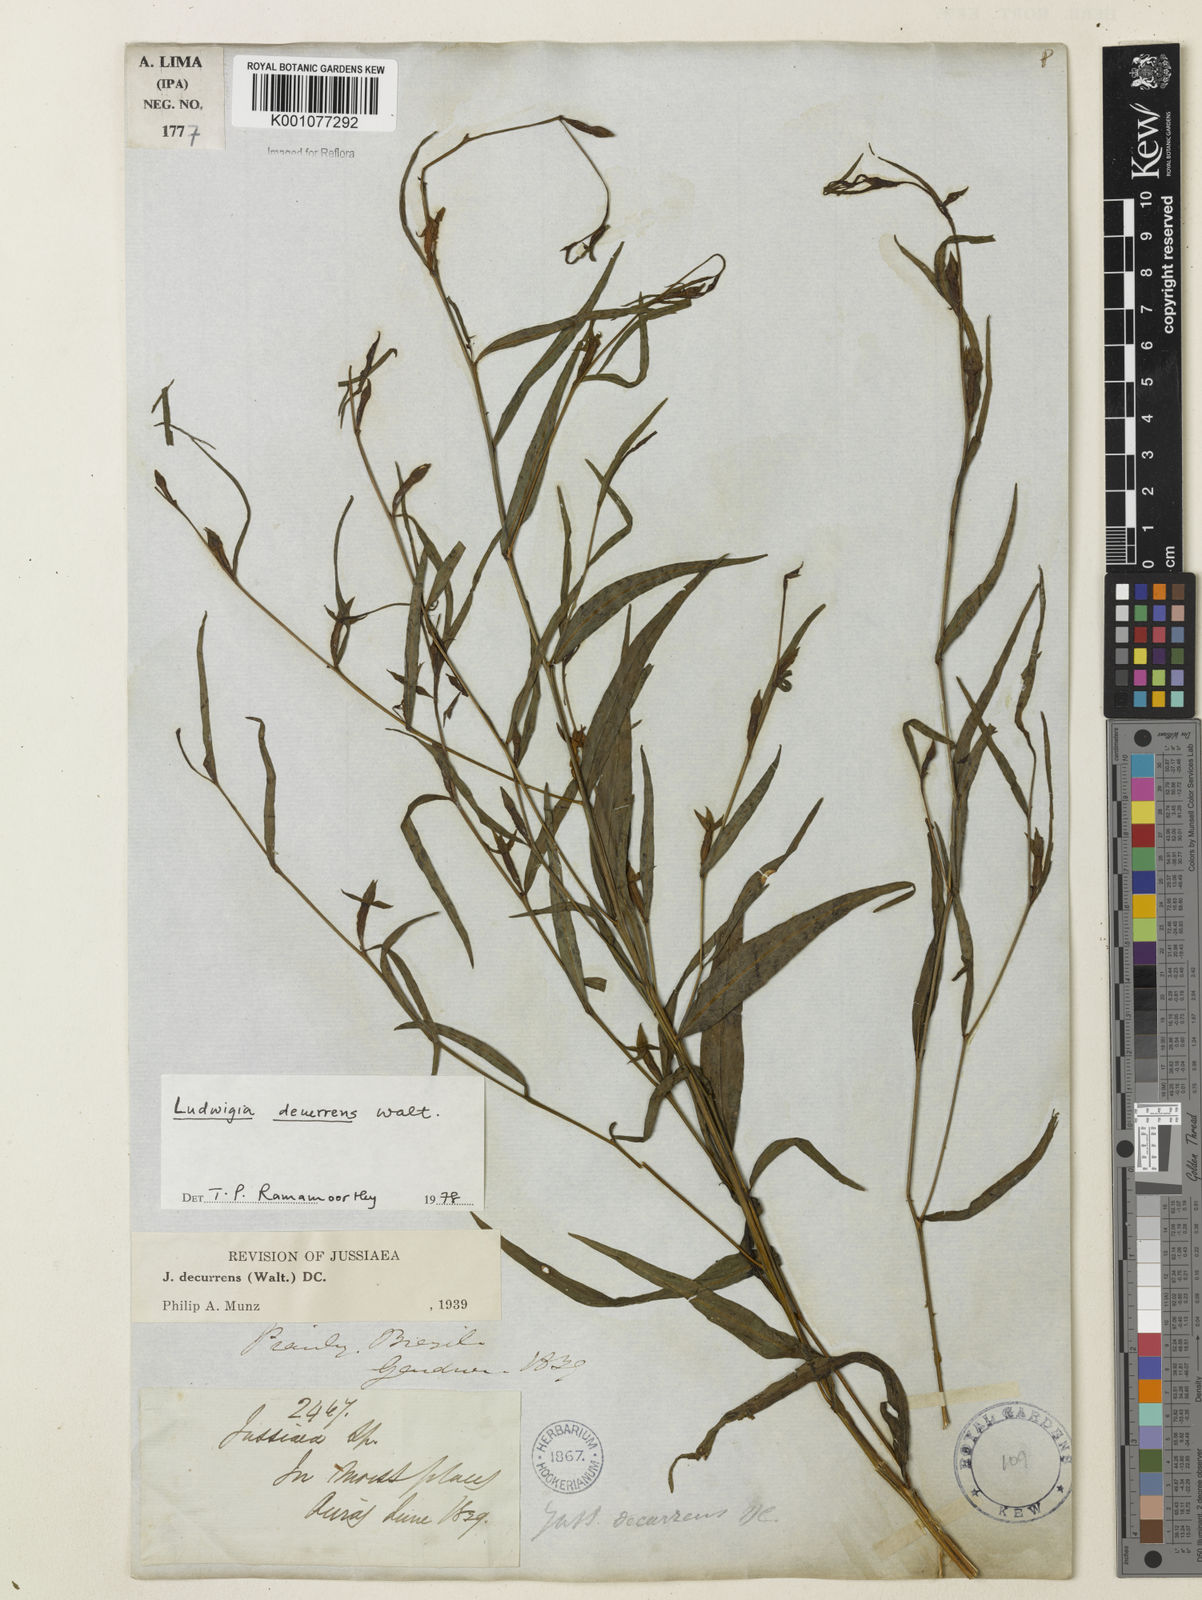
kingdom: Plantae
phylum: Tracheophyta
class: Magnoliopsida
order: Myrtales
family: Onagraceae
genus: Ludwigia
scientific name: Ludwigia decurrens
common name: Winged water-primrose
